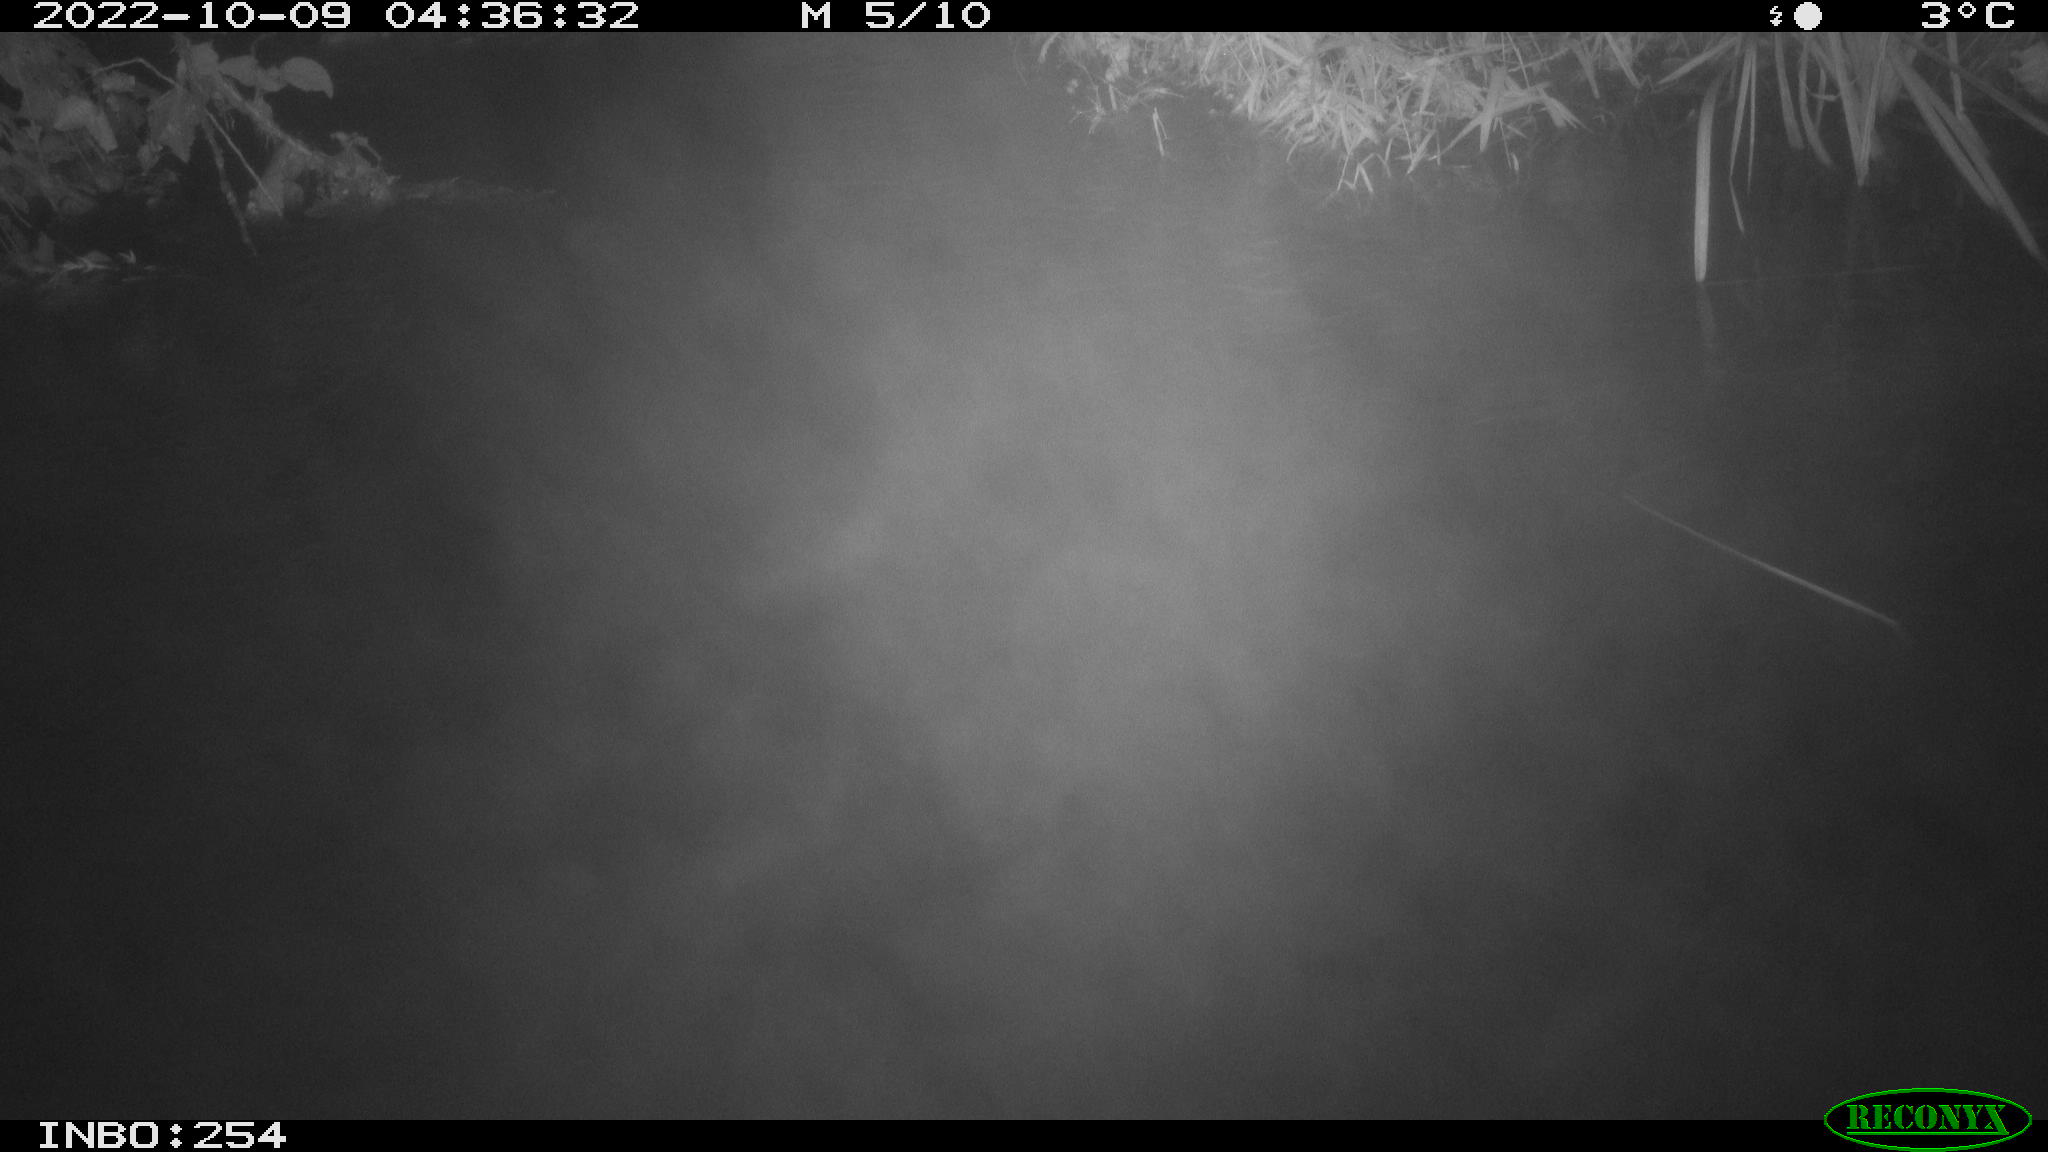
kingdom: Animalia
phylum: Chordata
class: Aves
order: Anseriformes
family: Anatidae
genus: Anas
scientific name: Anas
